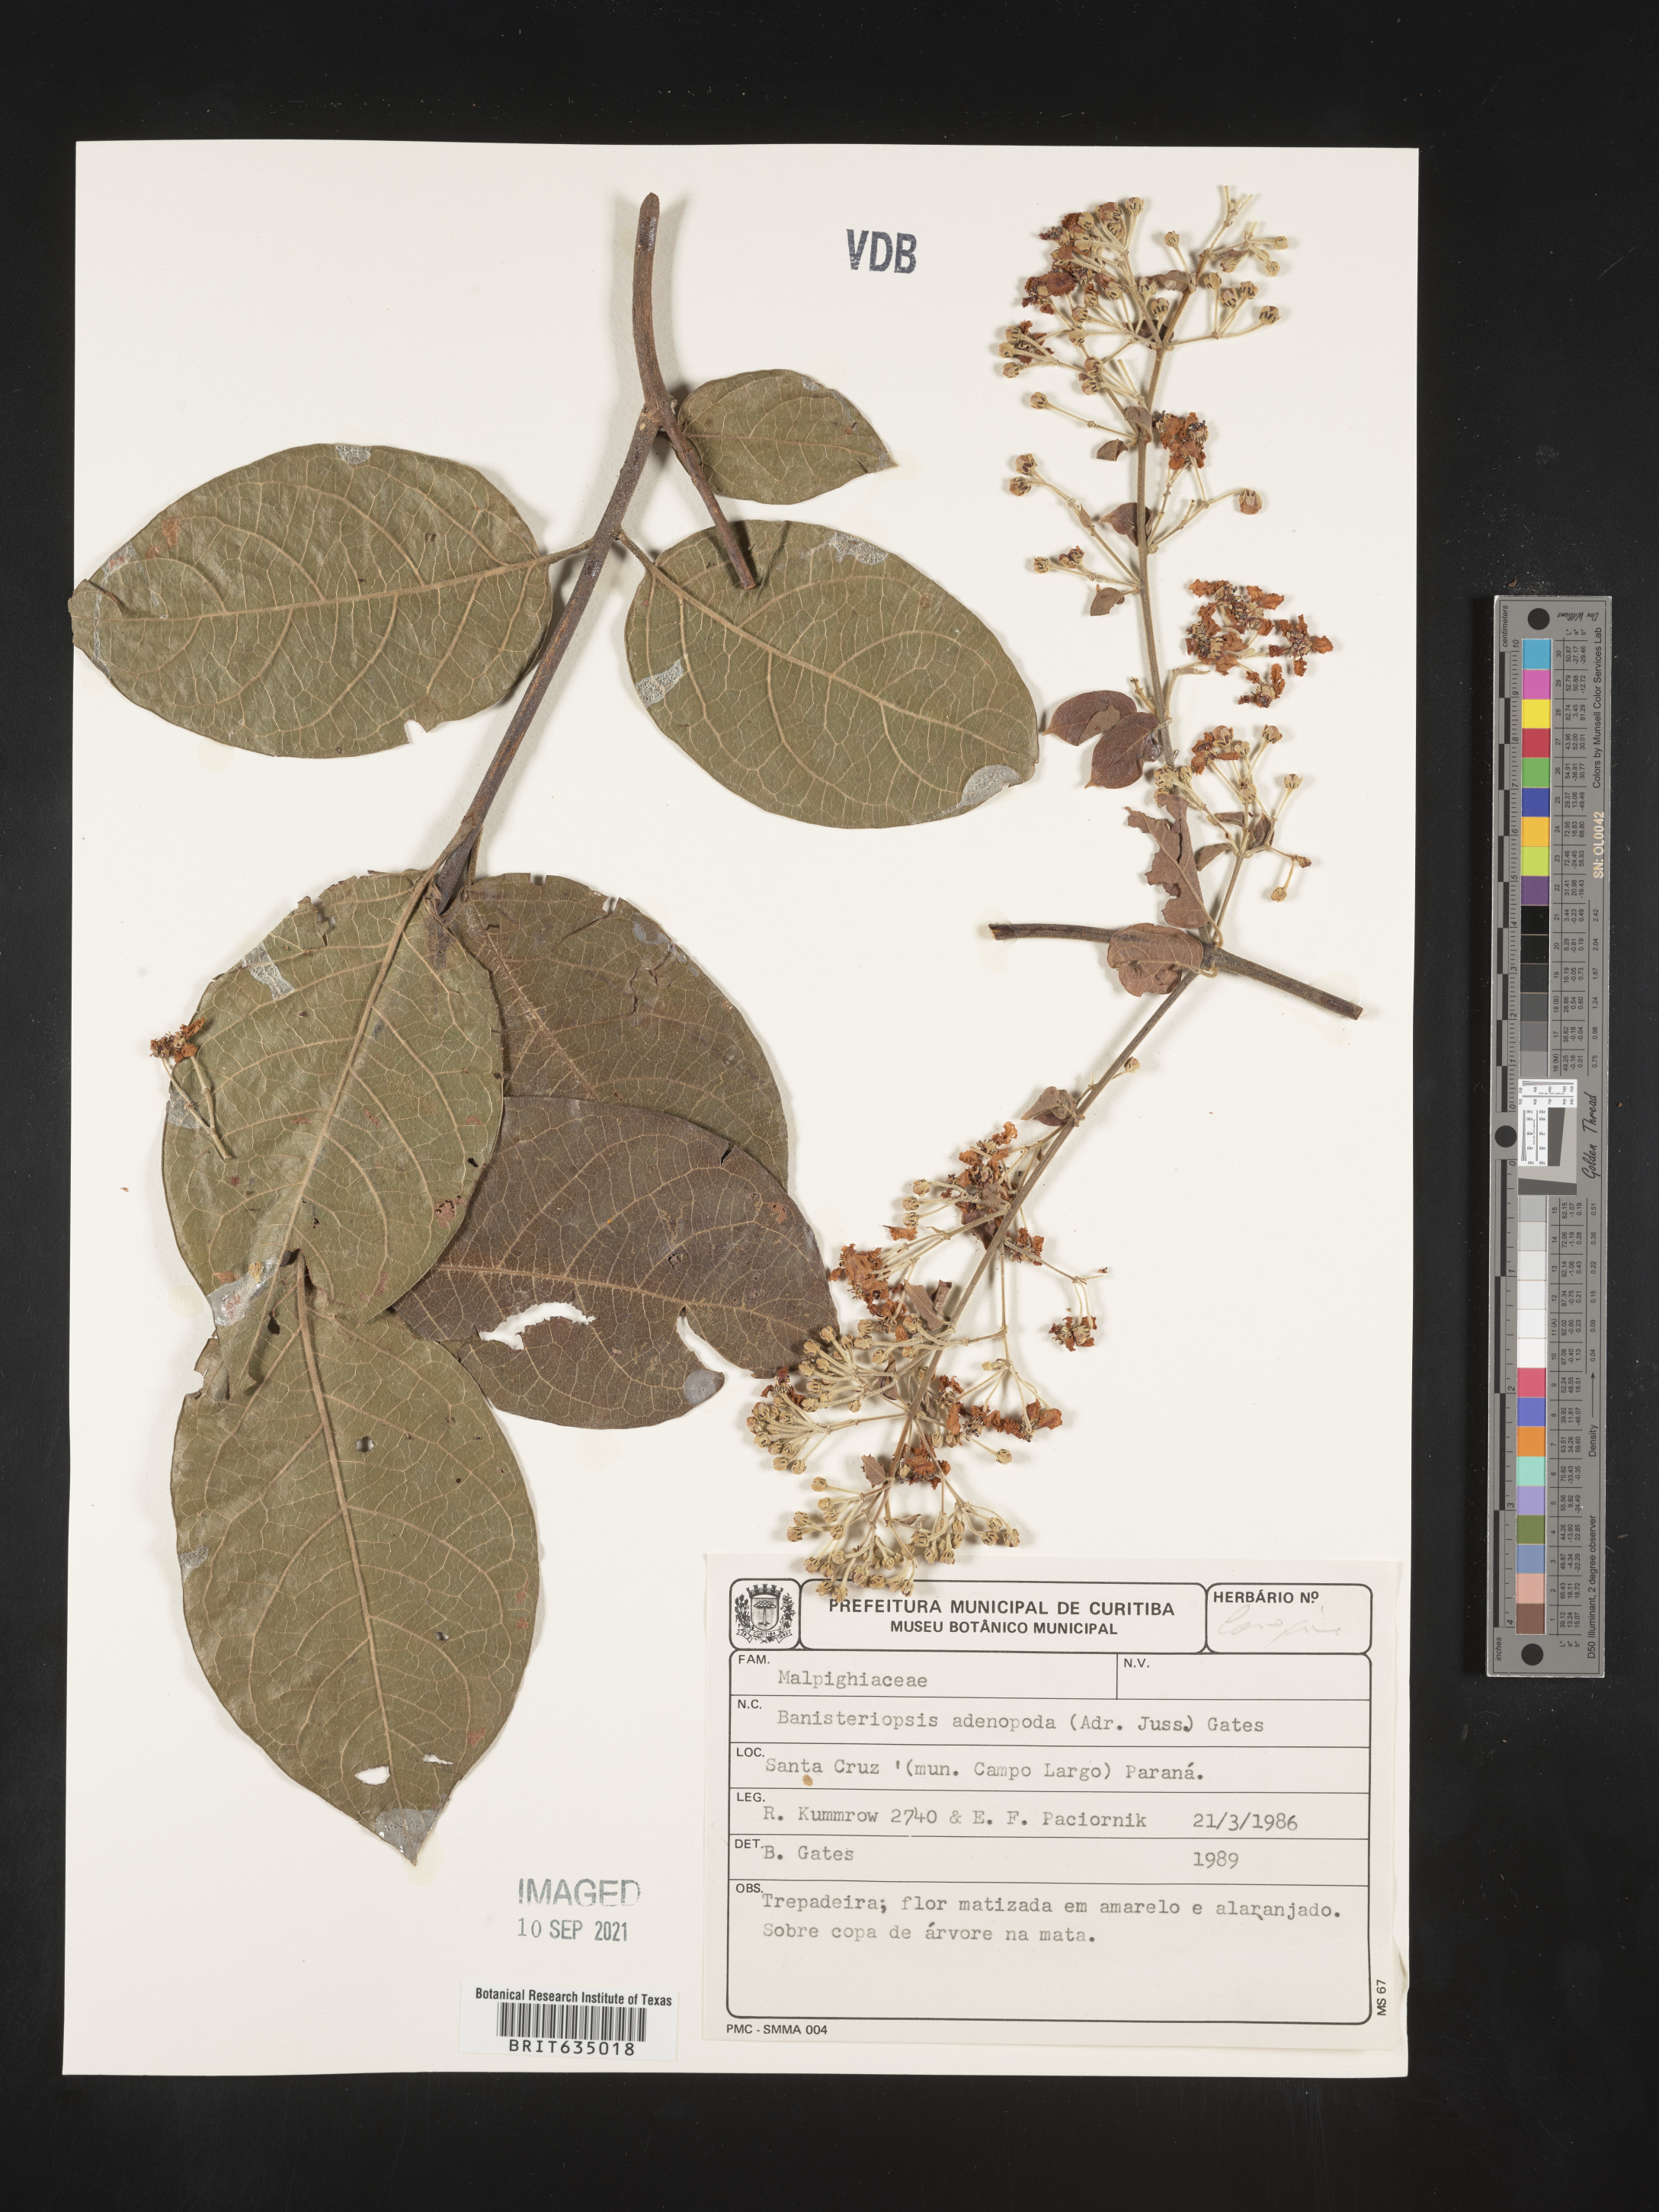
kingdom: Plantae
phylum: Tracheophyta
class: Magnoliopsida
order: Malpighiales
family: Malpighiaceae
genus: Banisteriopsis
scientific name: Banisteriopsis
